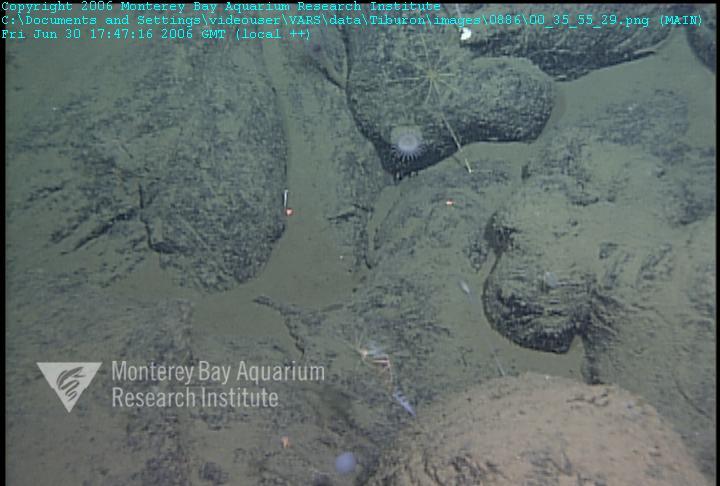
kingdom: Animalia
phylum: Porifera
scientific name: Porifera
